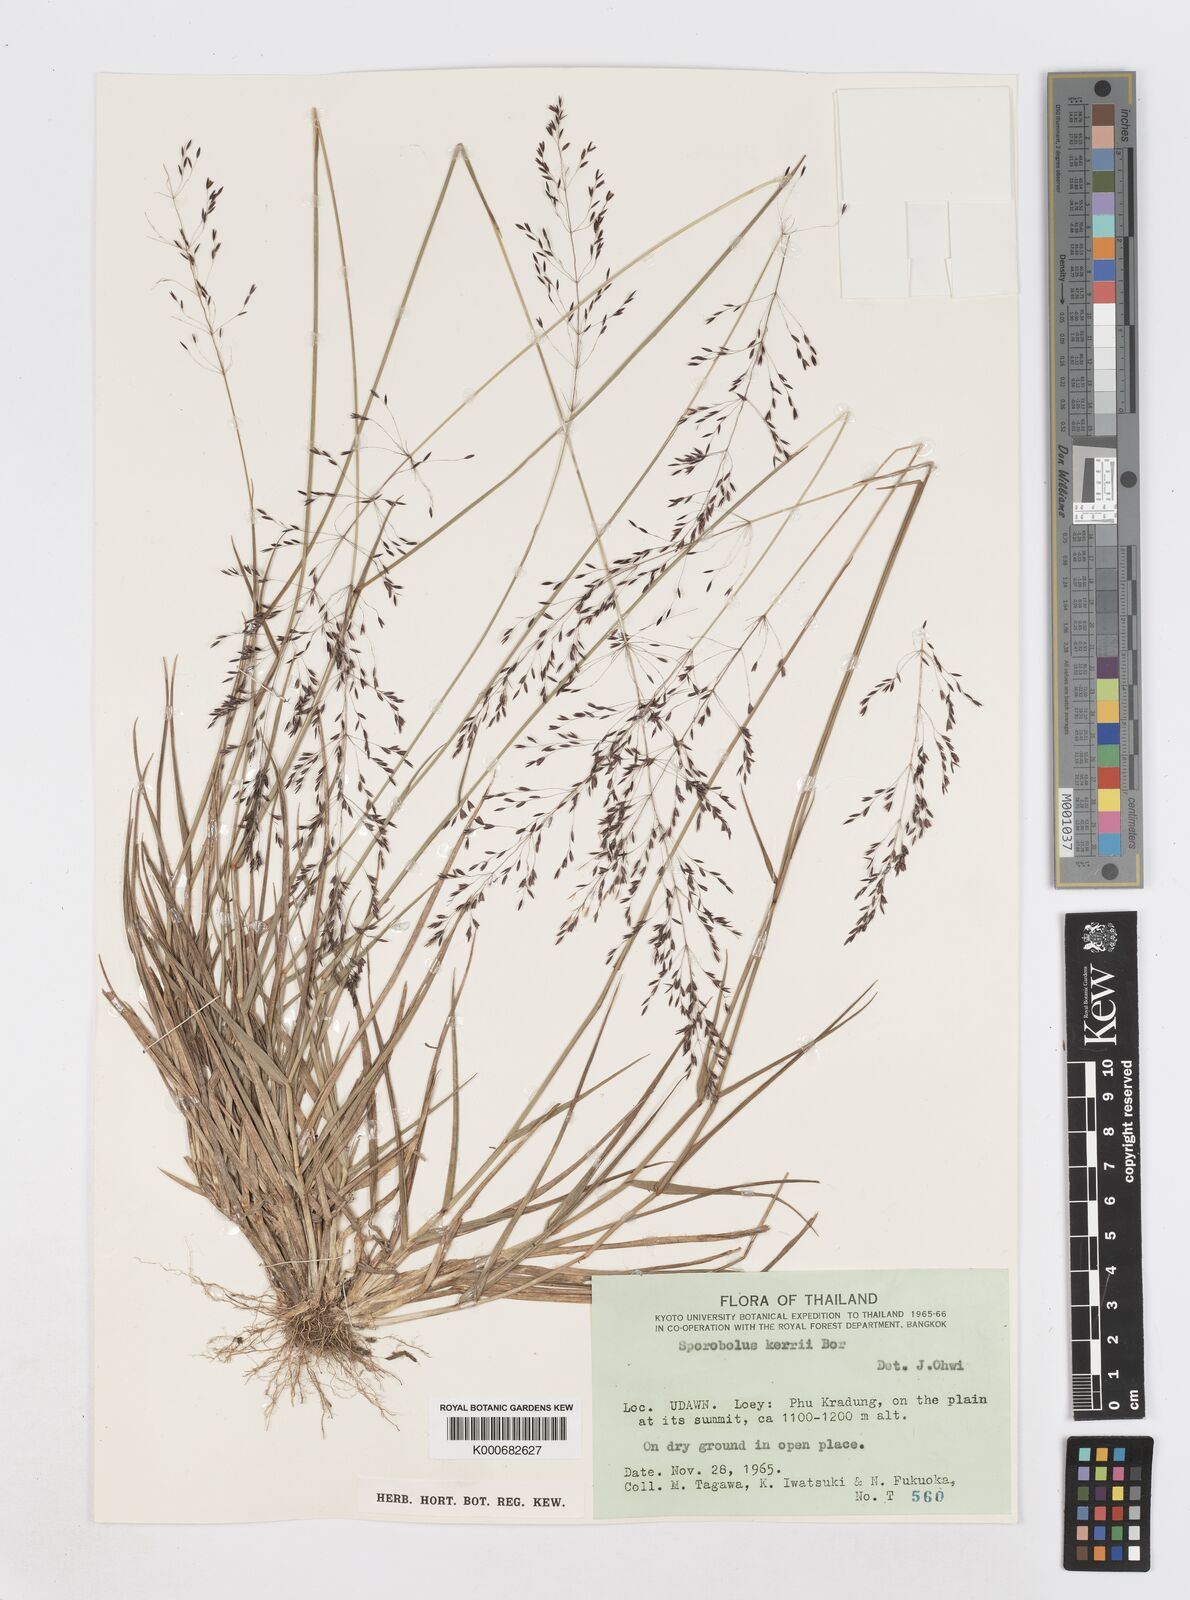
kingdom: Plantae
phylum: Tracheophyta
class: Liliopsida
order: Poales
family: Poaceae
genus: Sporobolus
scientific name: Sporobolus kerrii
